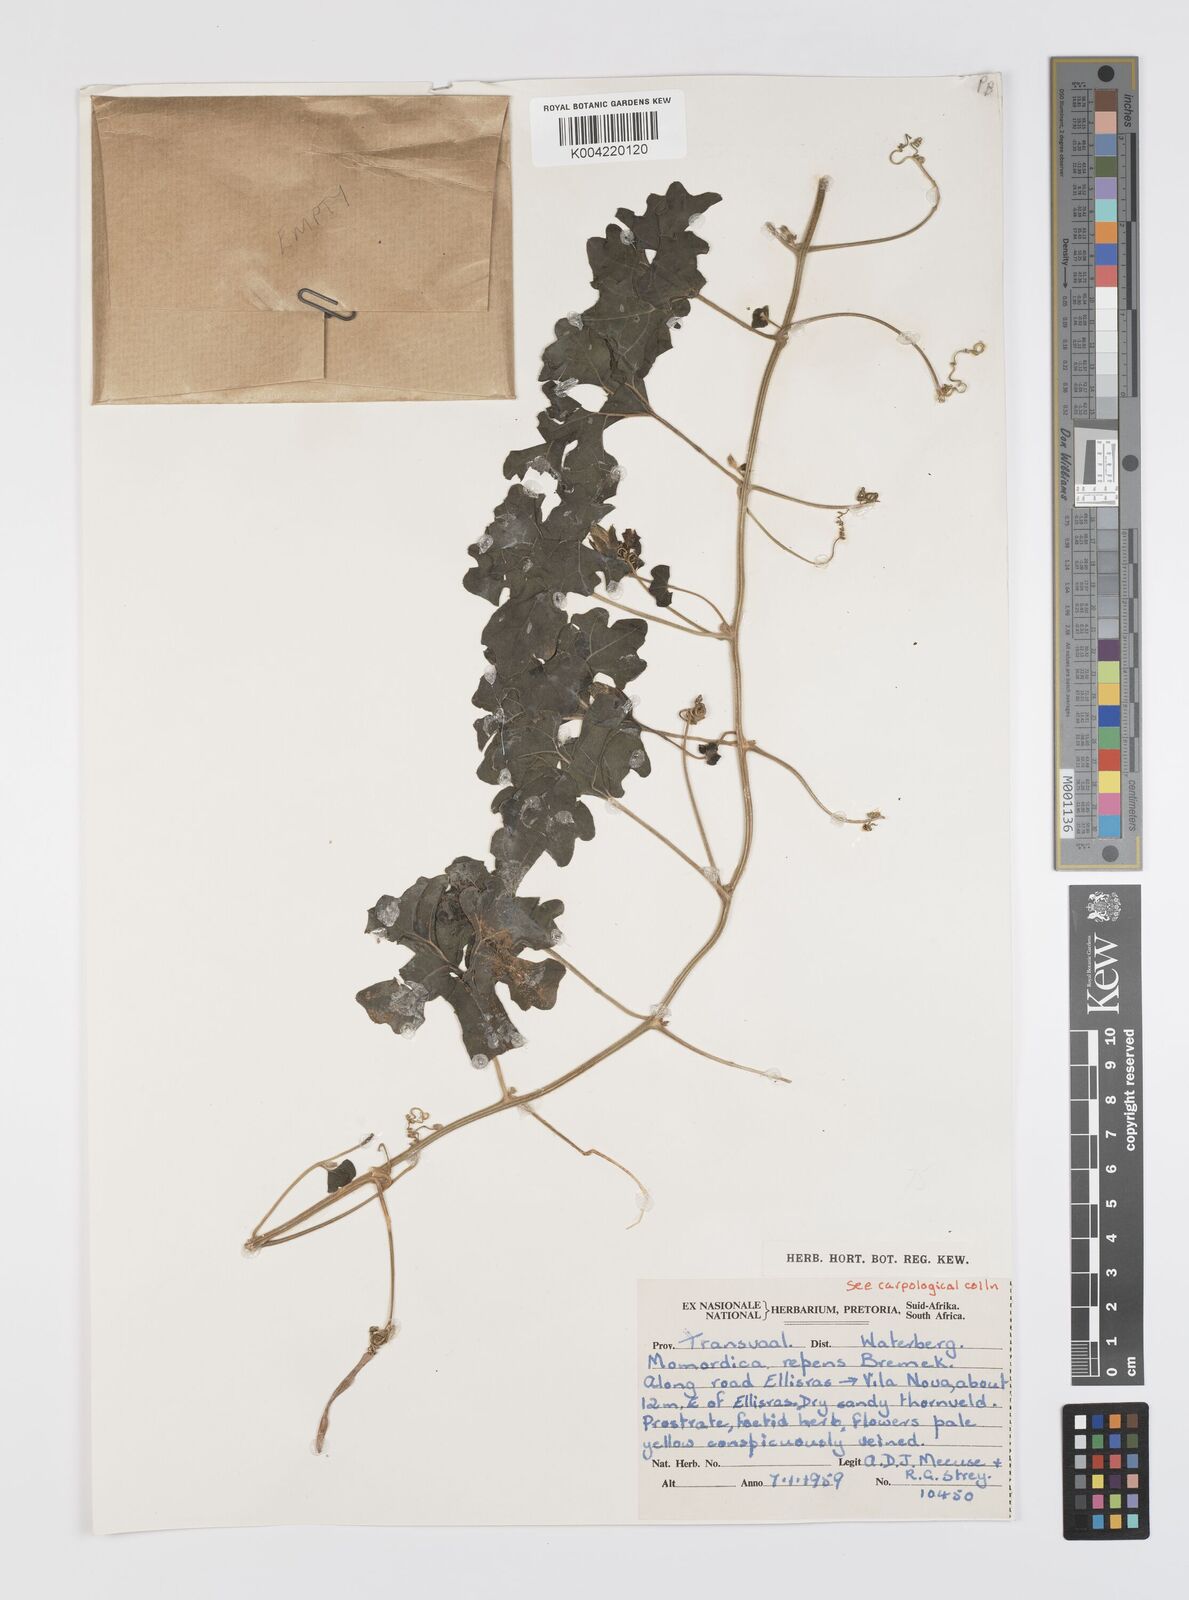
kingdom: Plantae
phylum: Tracheophyta
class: Magnoliopsida
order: Cucurbitales
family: Cucurbitaceae
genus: Momordica
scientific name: Momordica repens
